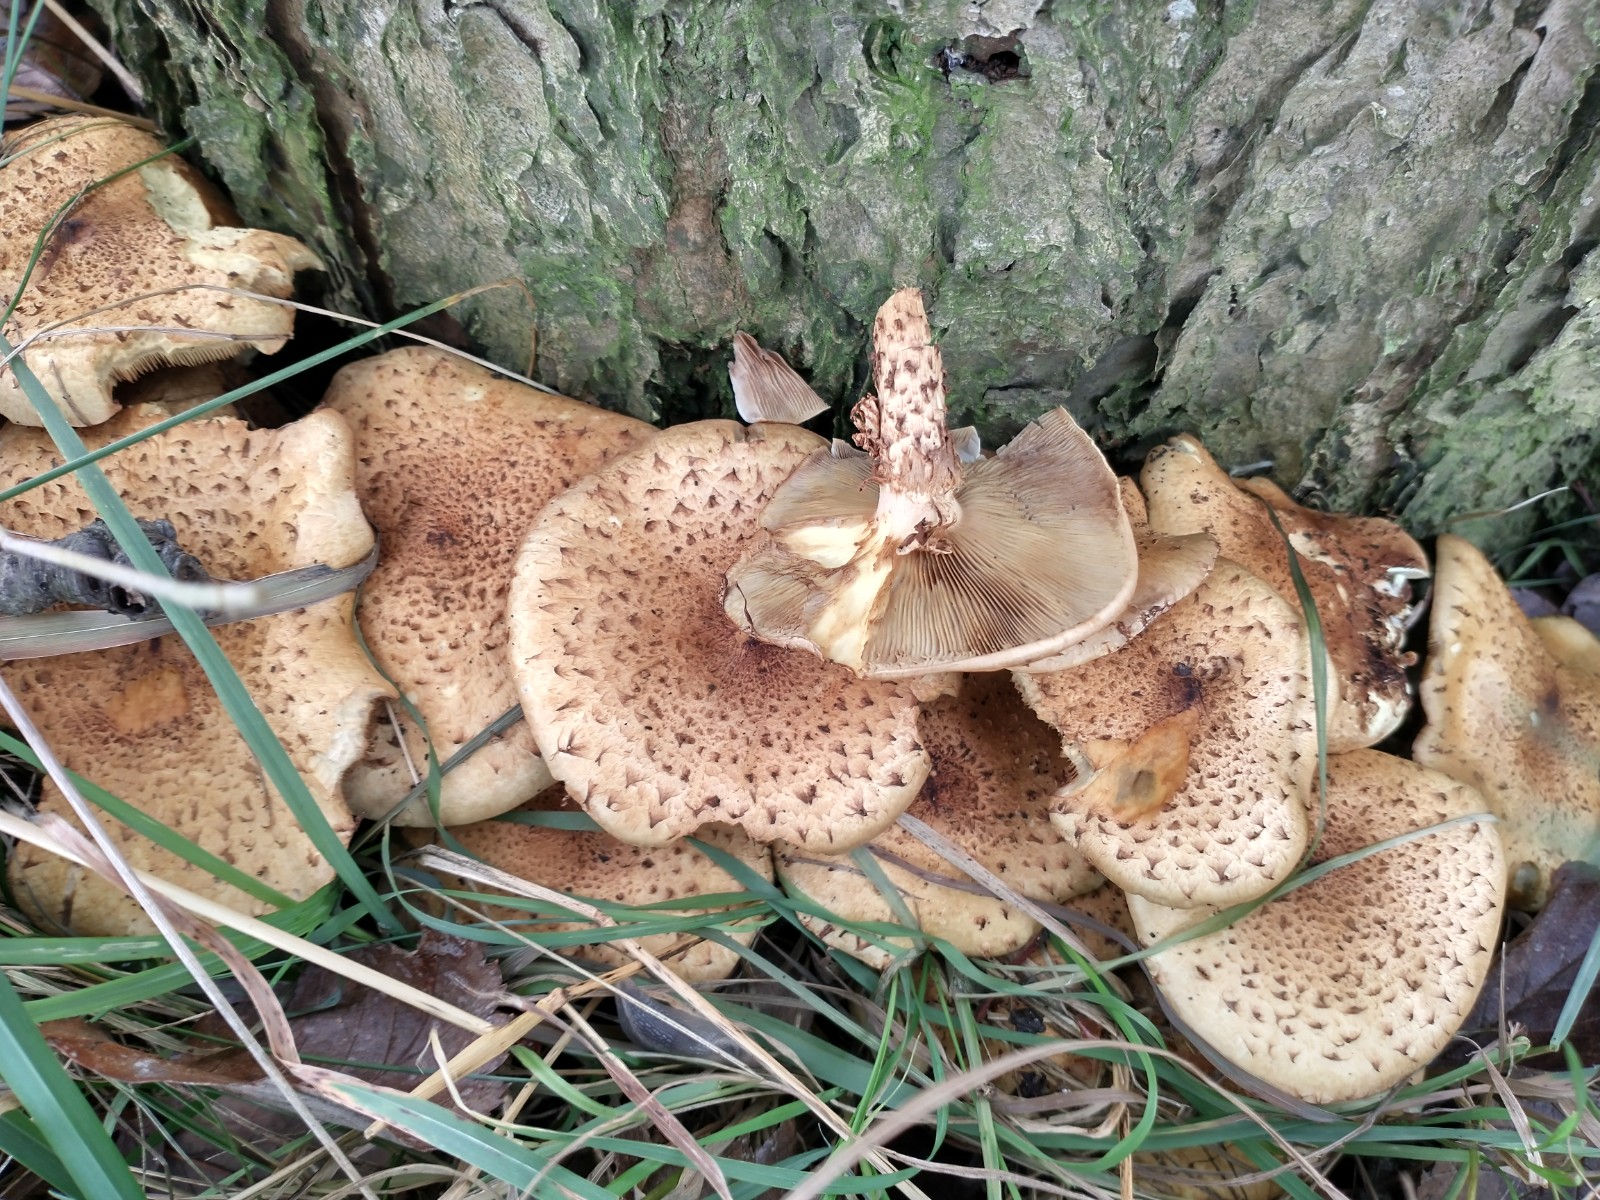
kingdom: Fungi
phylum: Basidiomycota
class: Agaricomycetes
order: Agaricales
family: Strophariaceae
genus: Pholiota
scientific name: Pholiota squarrosa
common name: krumskællet skælhat
